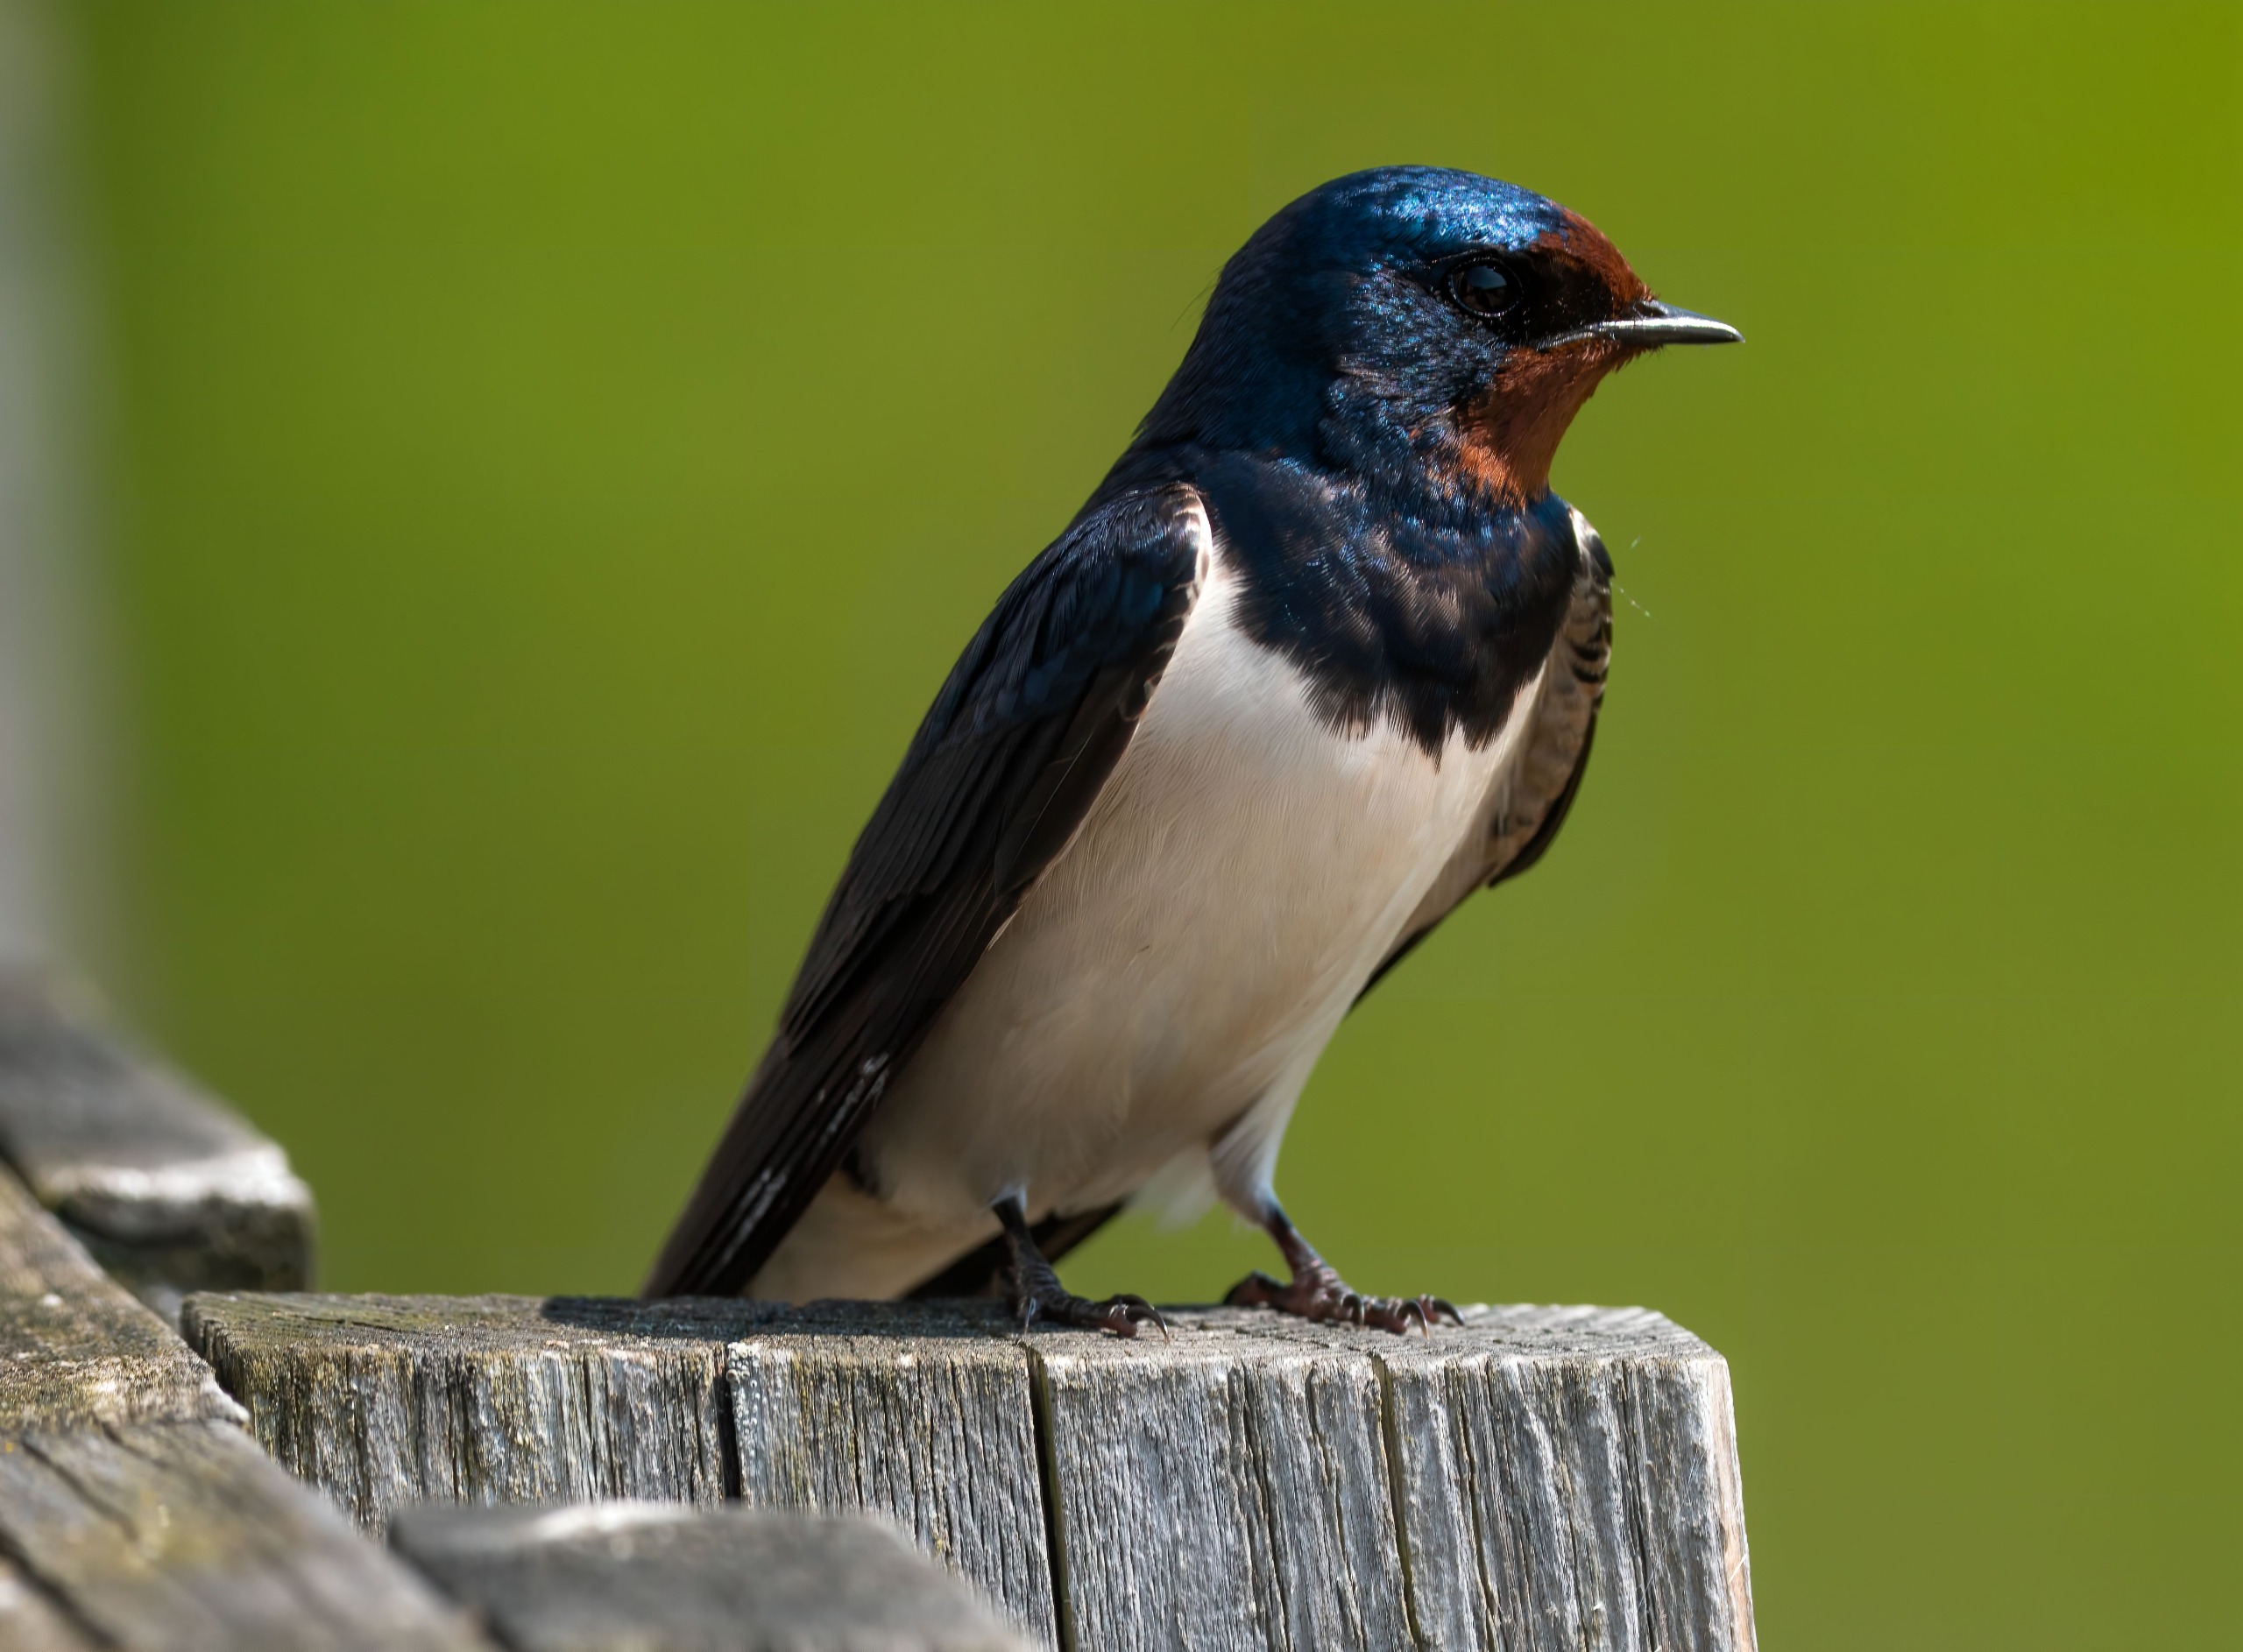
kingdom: Animalia
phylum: Chordata
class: Aves
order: Passeriformes
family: Hirundinidae
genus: Hirundo
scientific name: Hirundo rustica
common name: Landsvale
